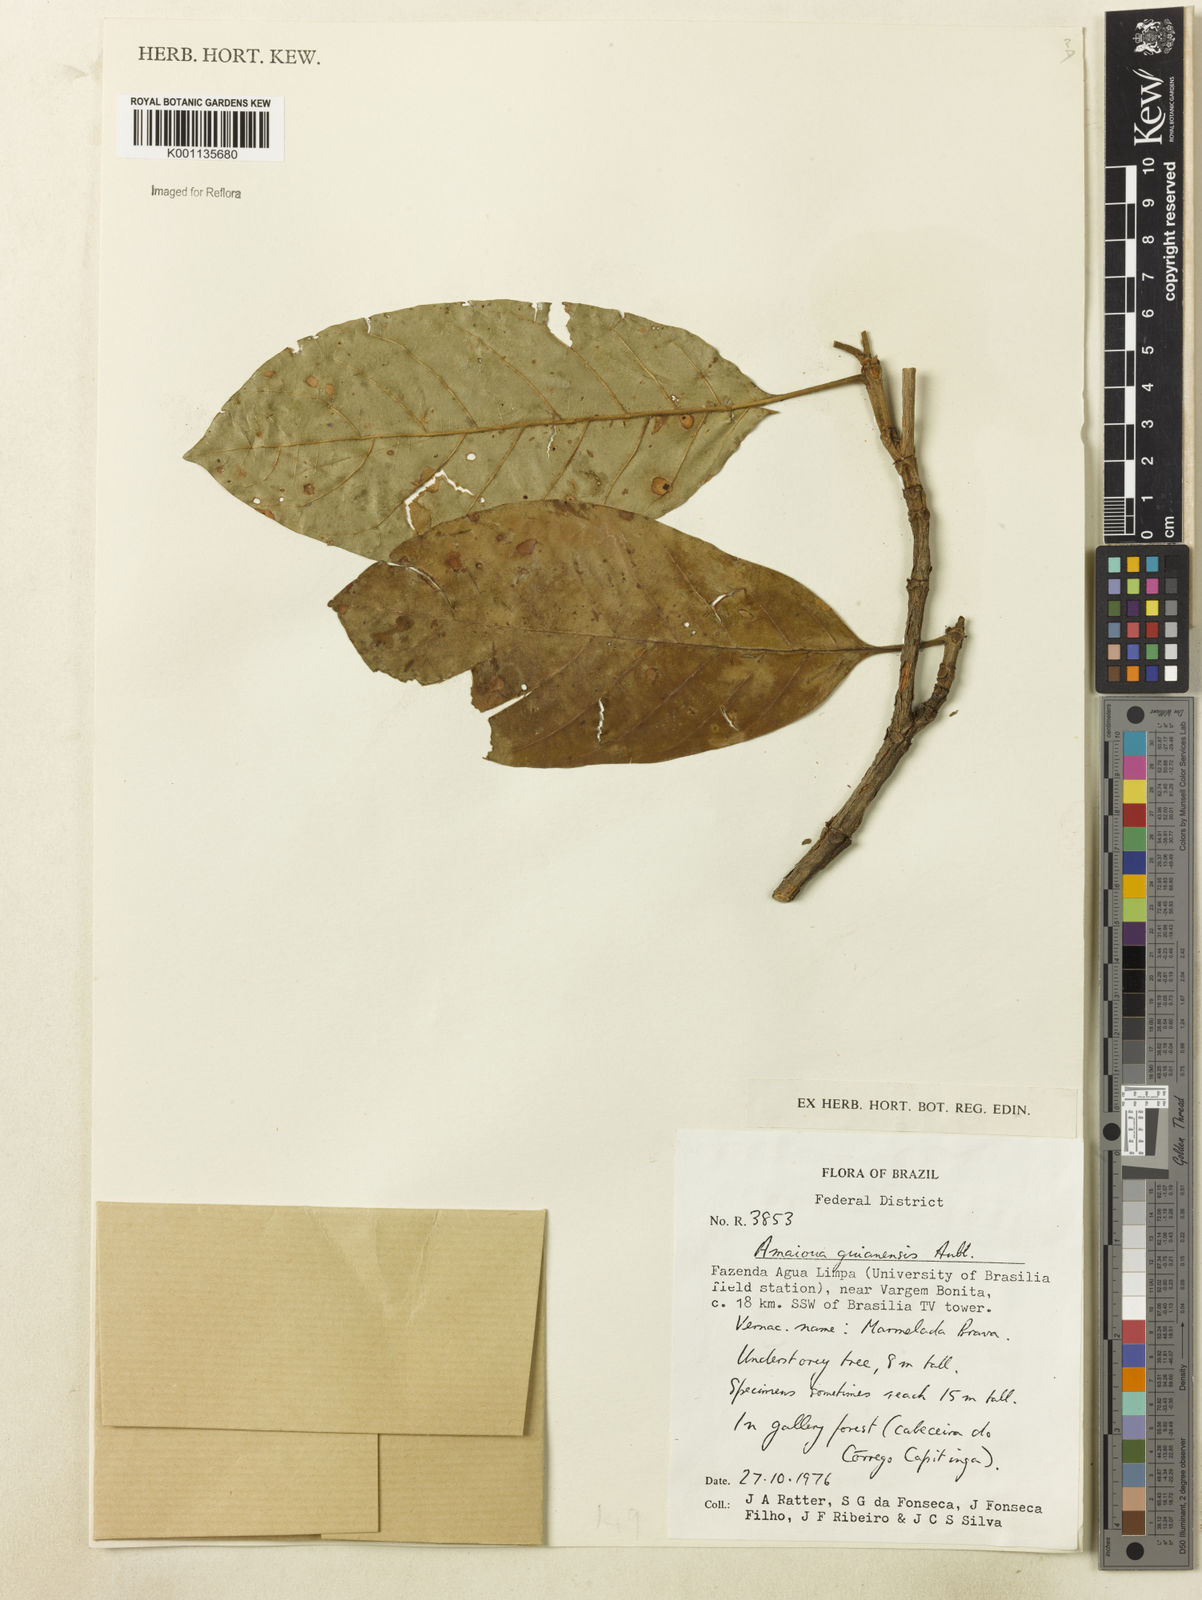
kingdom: Plantae
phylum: Tracheophyta
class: Magnoliopsida
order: Gentianales
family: Rubiaceae
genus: Amaioua
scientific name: Amaioua guianensis
